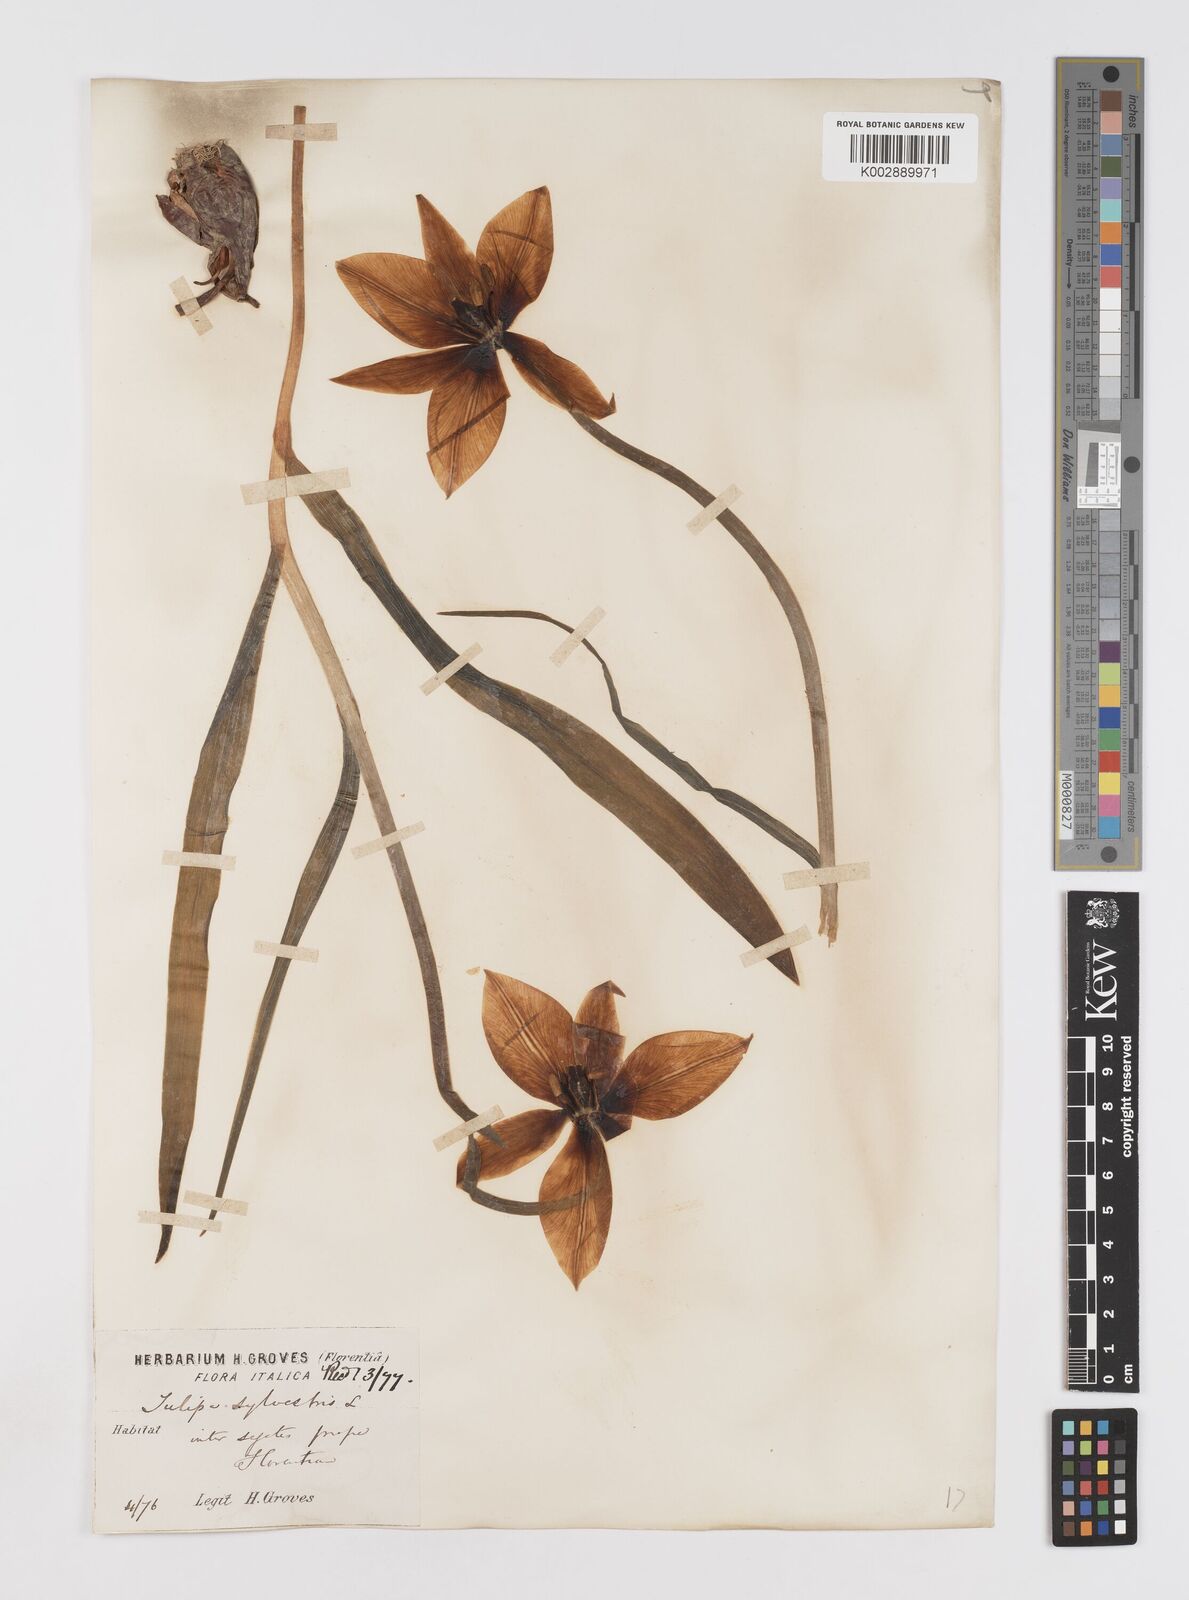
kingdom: Plantae
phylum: Tracheophyta
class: Liliopsida
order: Liliales
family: Liliaceae
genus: Tulipa
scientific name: Tulipa sylvestris
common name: Wild tulip
